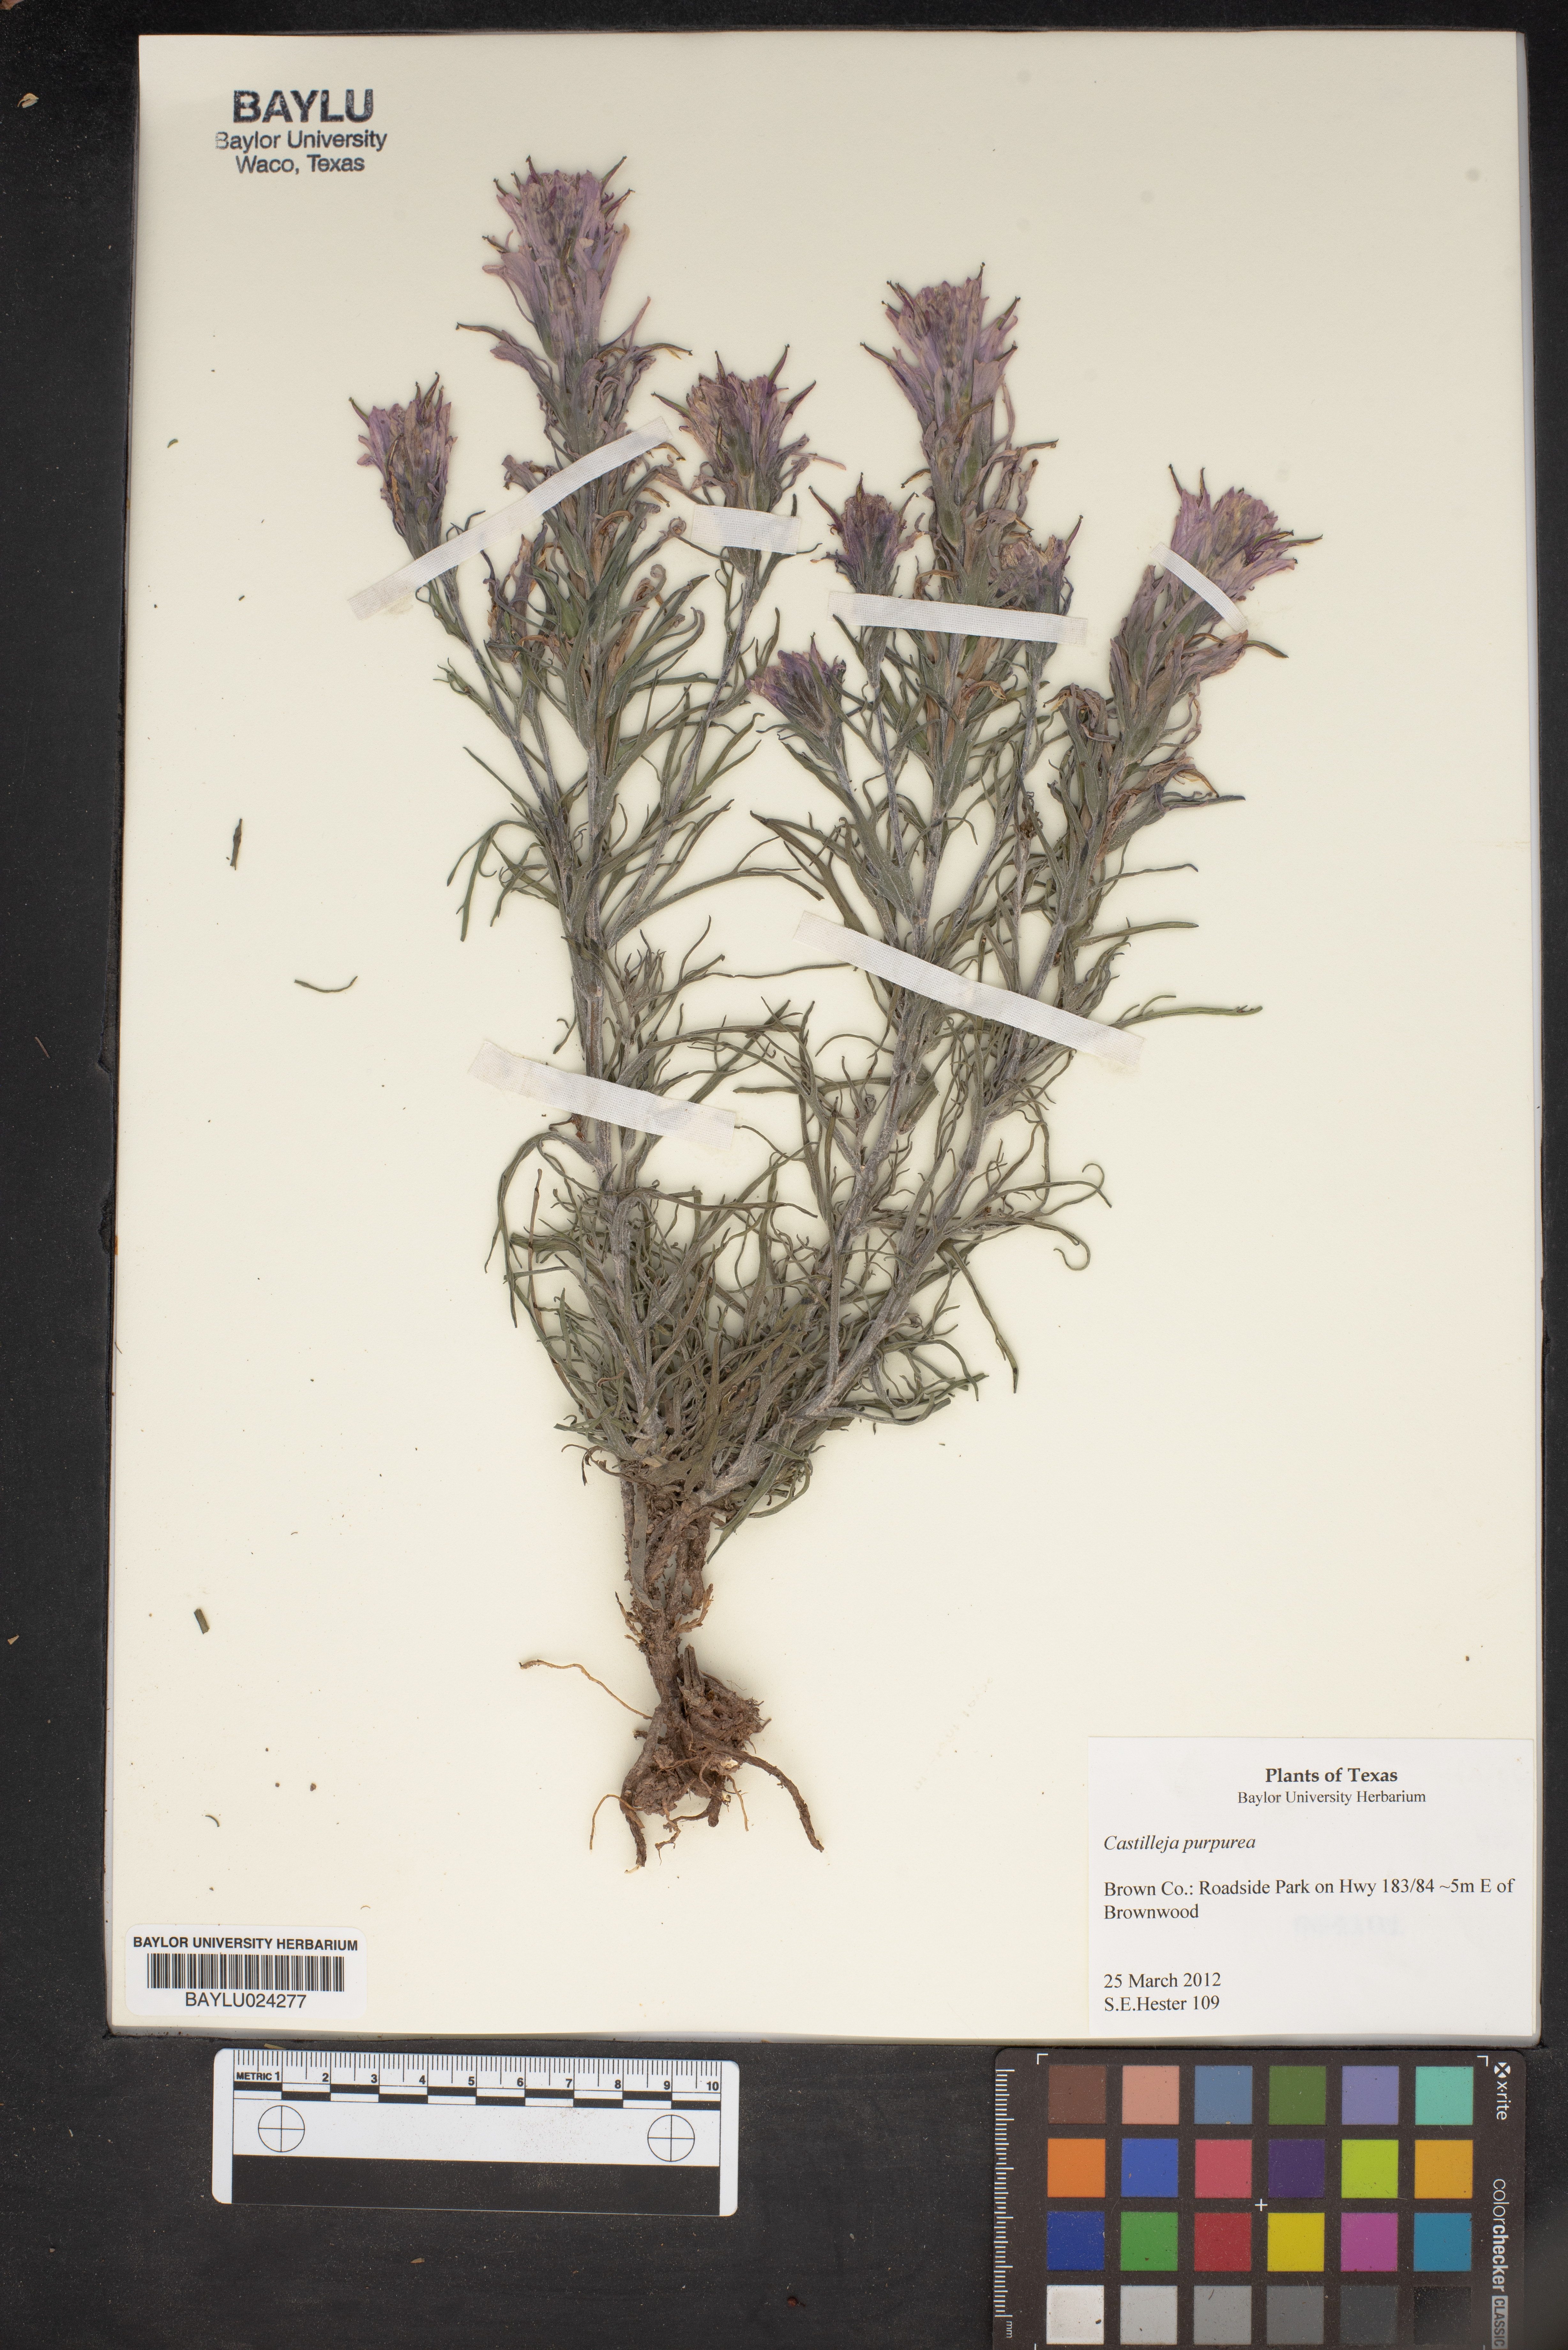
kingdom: Plantae
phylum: Tracheophyta
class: Magnoliopsida
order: Lamiales
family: Orobanchaceae
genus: Castilleja
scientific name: Castilleja purpurea
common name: Plains paintbrush
